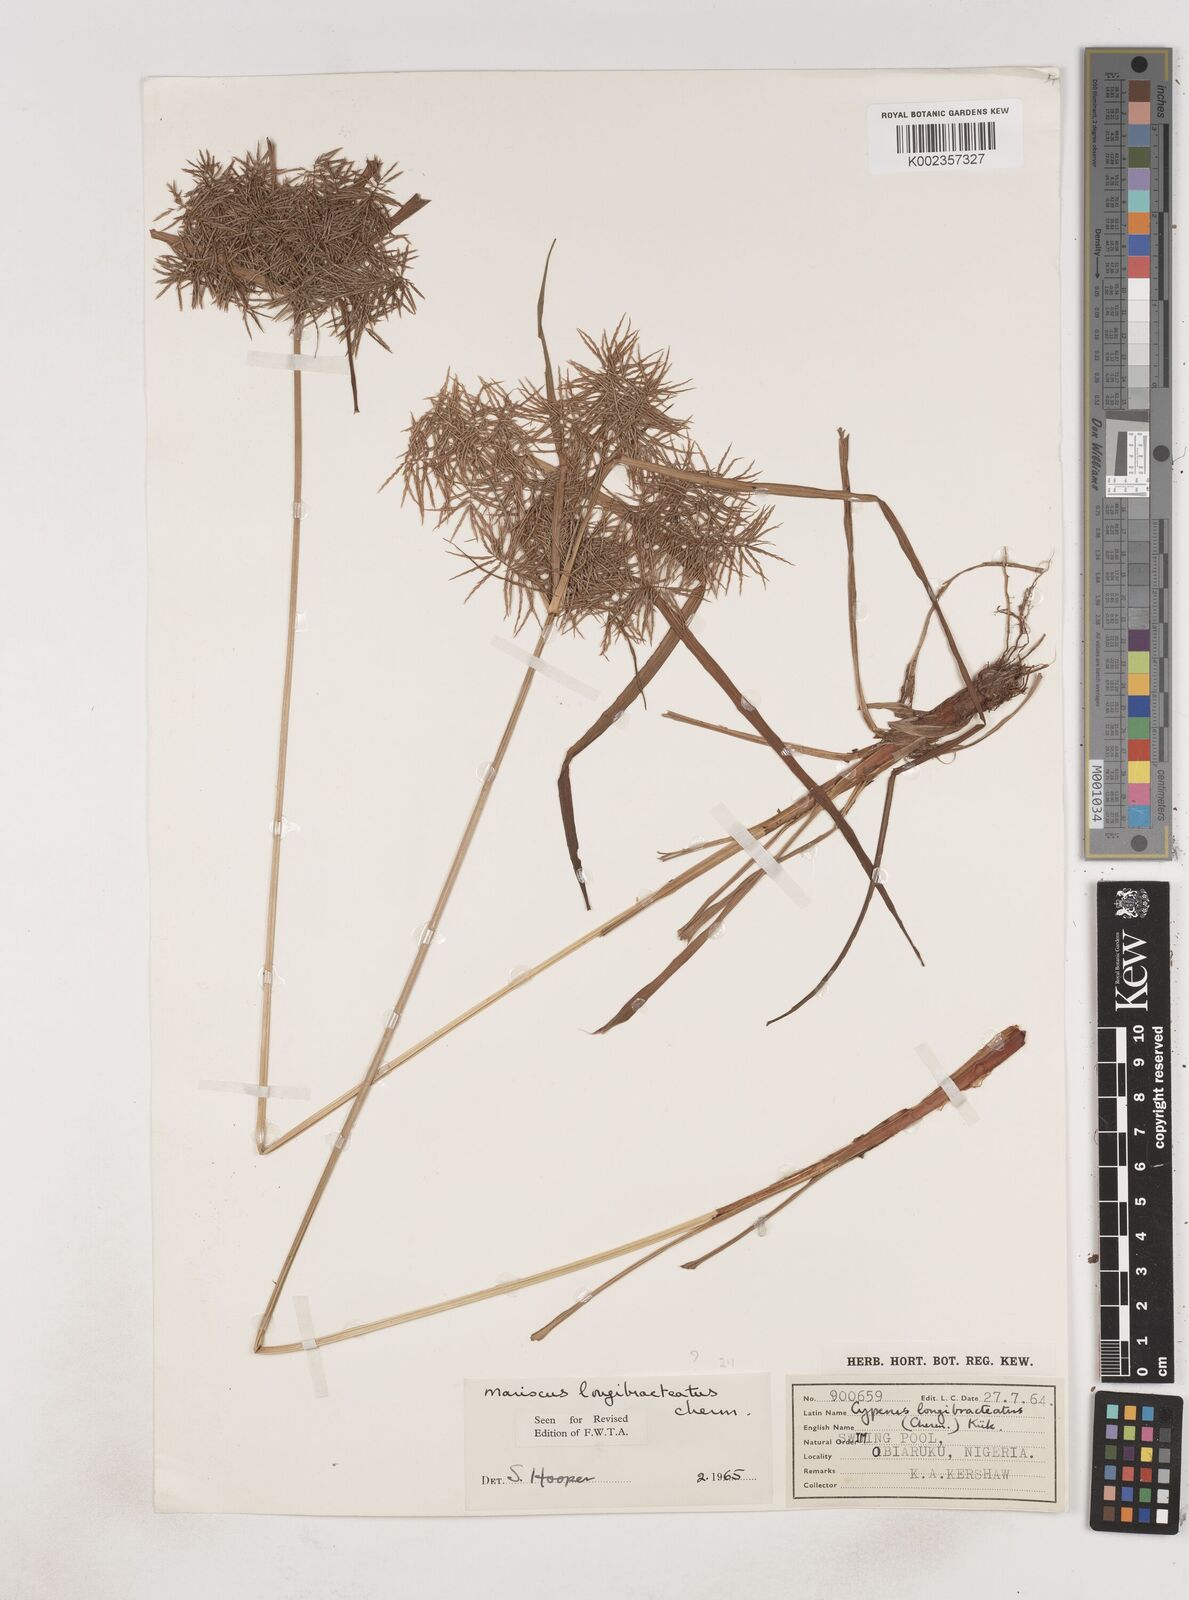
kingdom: Plantae
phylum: Tracheophyta
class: Liliopsida
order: Poales
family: Cyperaceae
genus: Cyperus
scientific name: Cyperus distans
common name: Slender cyperus
